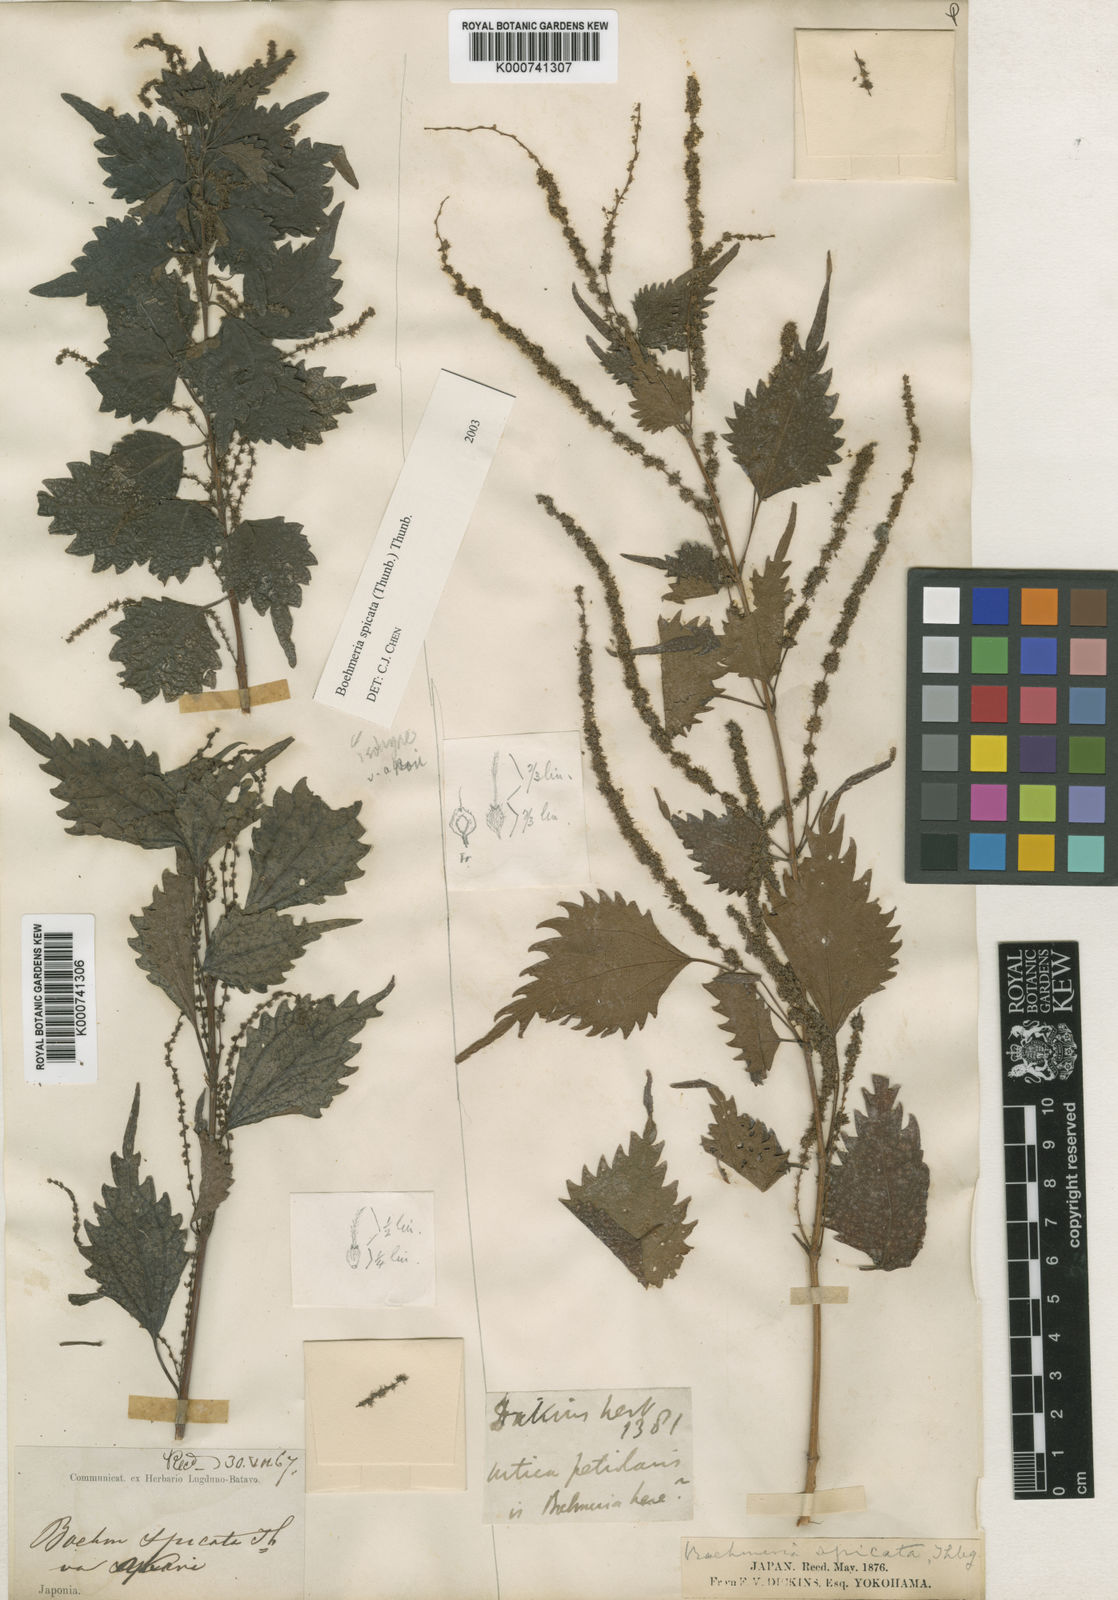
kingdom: Plantae
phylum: Tracheophyta
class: Magnoliopsida
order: Rosales
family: Urticaceae
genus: Boehmeria
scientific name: Boehmeria japonica
